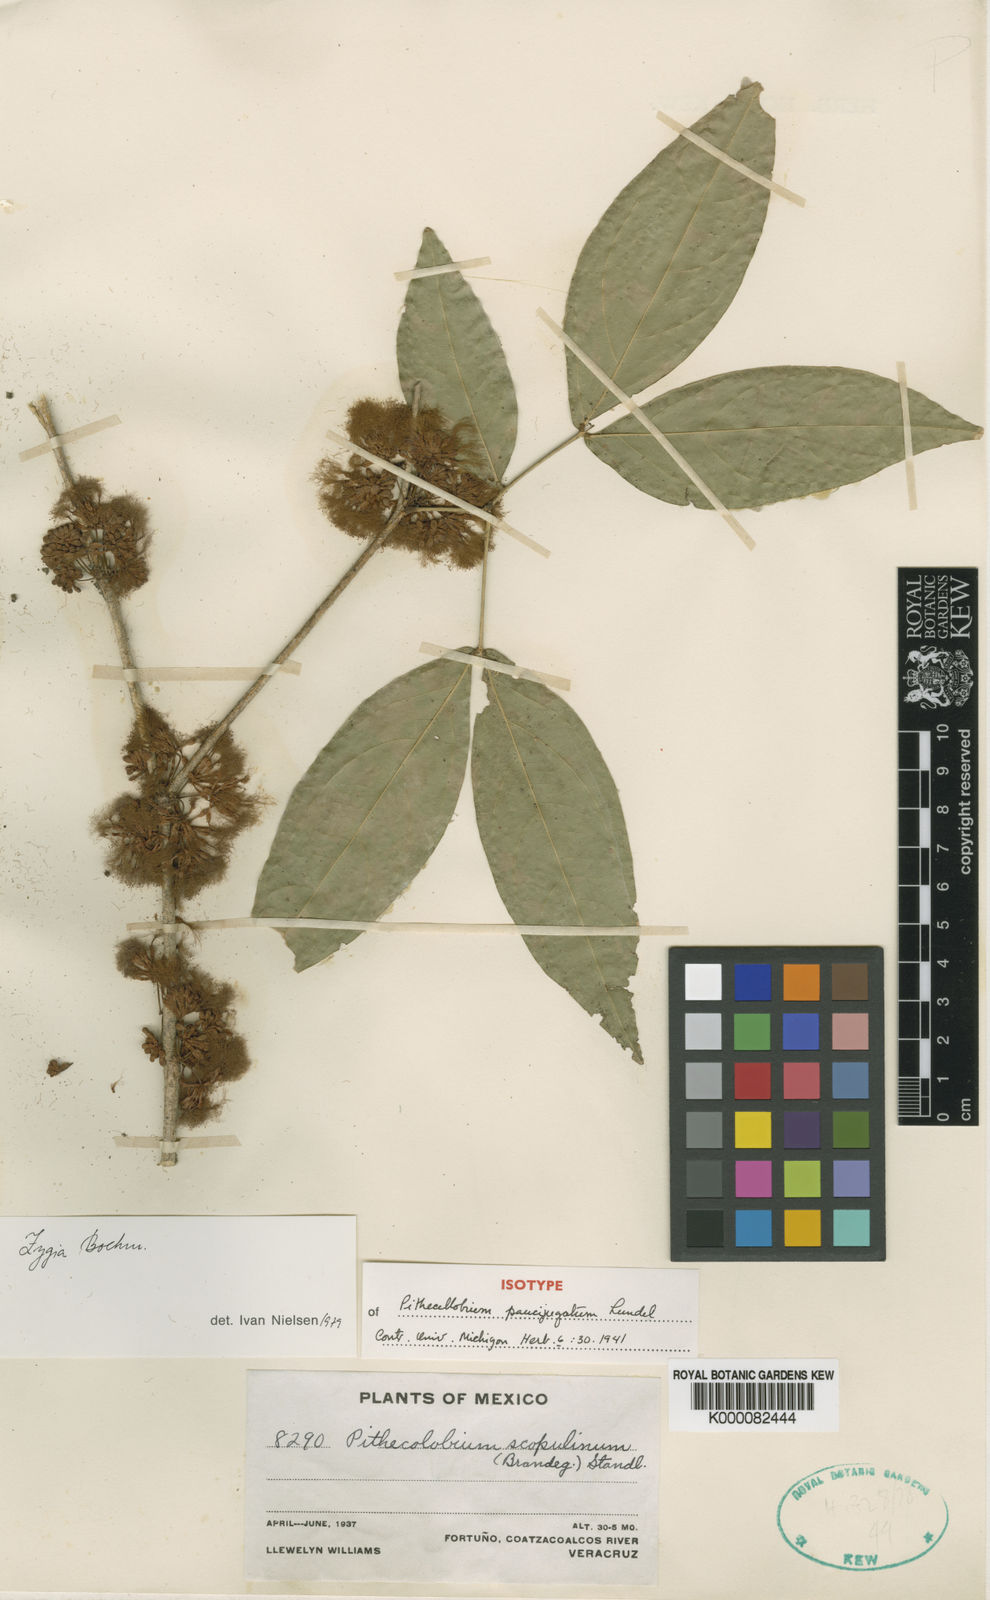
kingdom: Plantae
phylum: Tracheophyta
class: Magnoliopsida
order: Fabales
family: Fabaceae
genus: Zygia
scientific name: Zygia paucijugata
